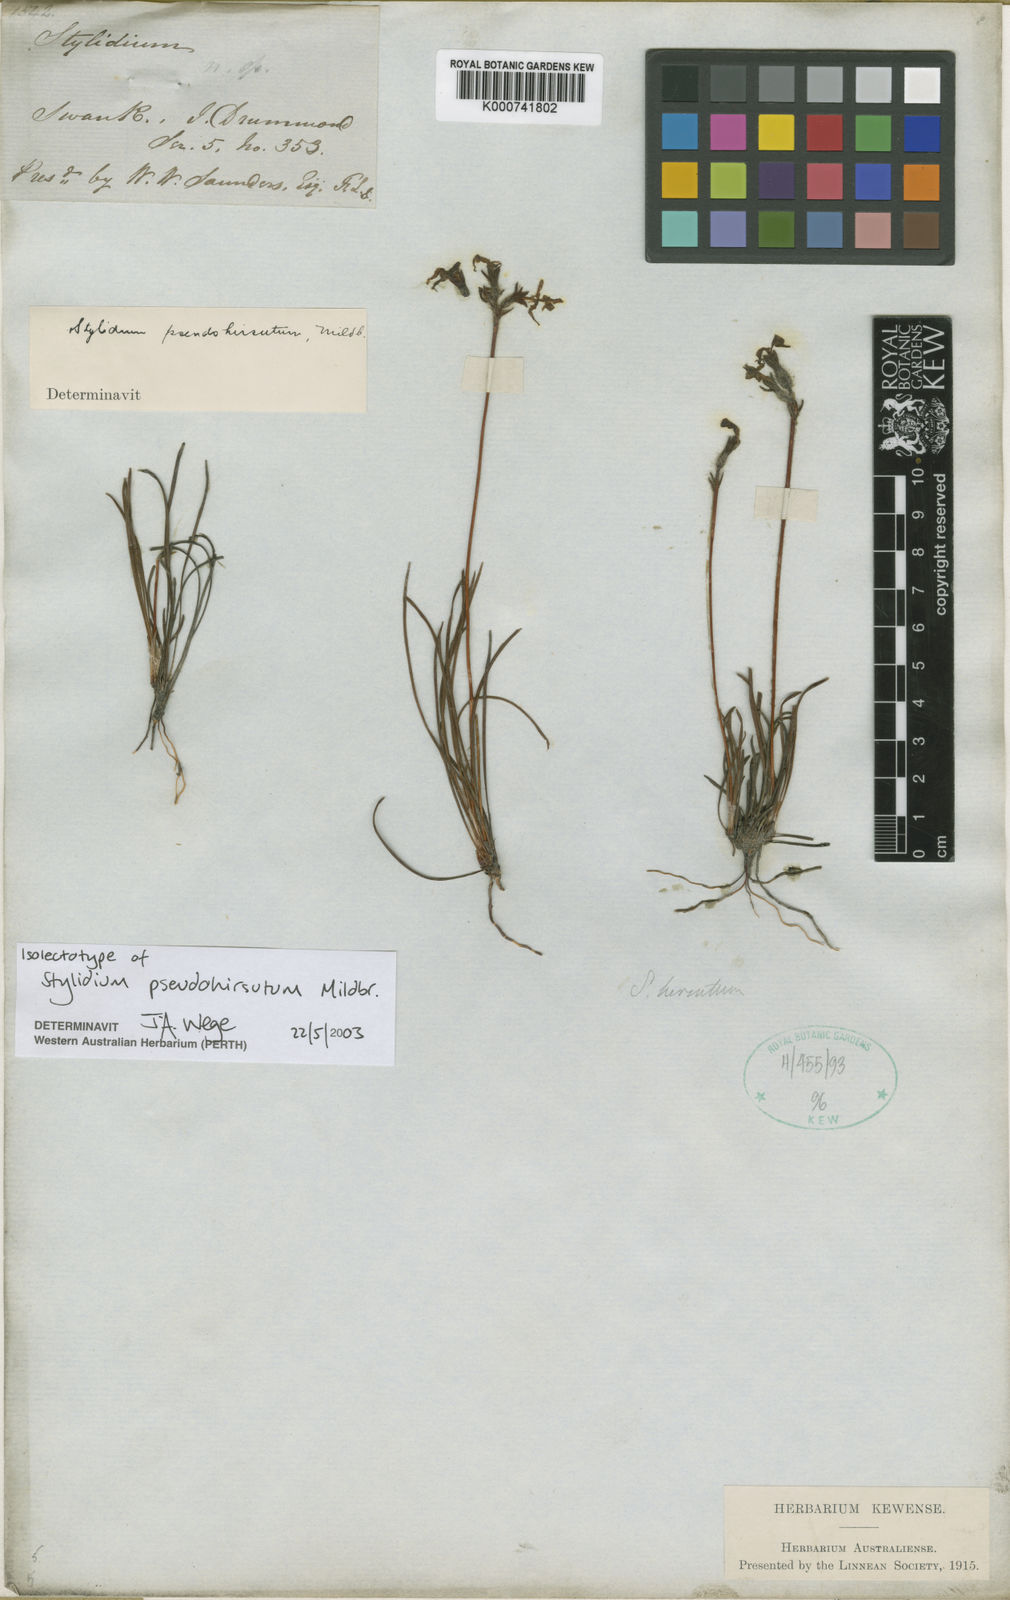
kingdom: Plantae
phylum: Tracheophyta
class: Magnoliopsida
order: Asterales
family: Stylidiaceae
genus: Stylidium
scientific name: Stylidium pseudohirsutum
